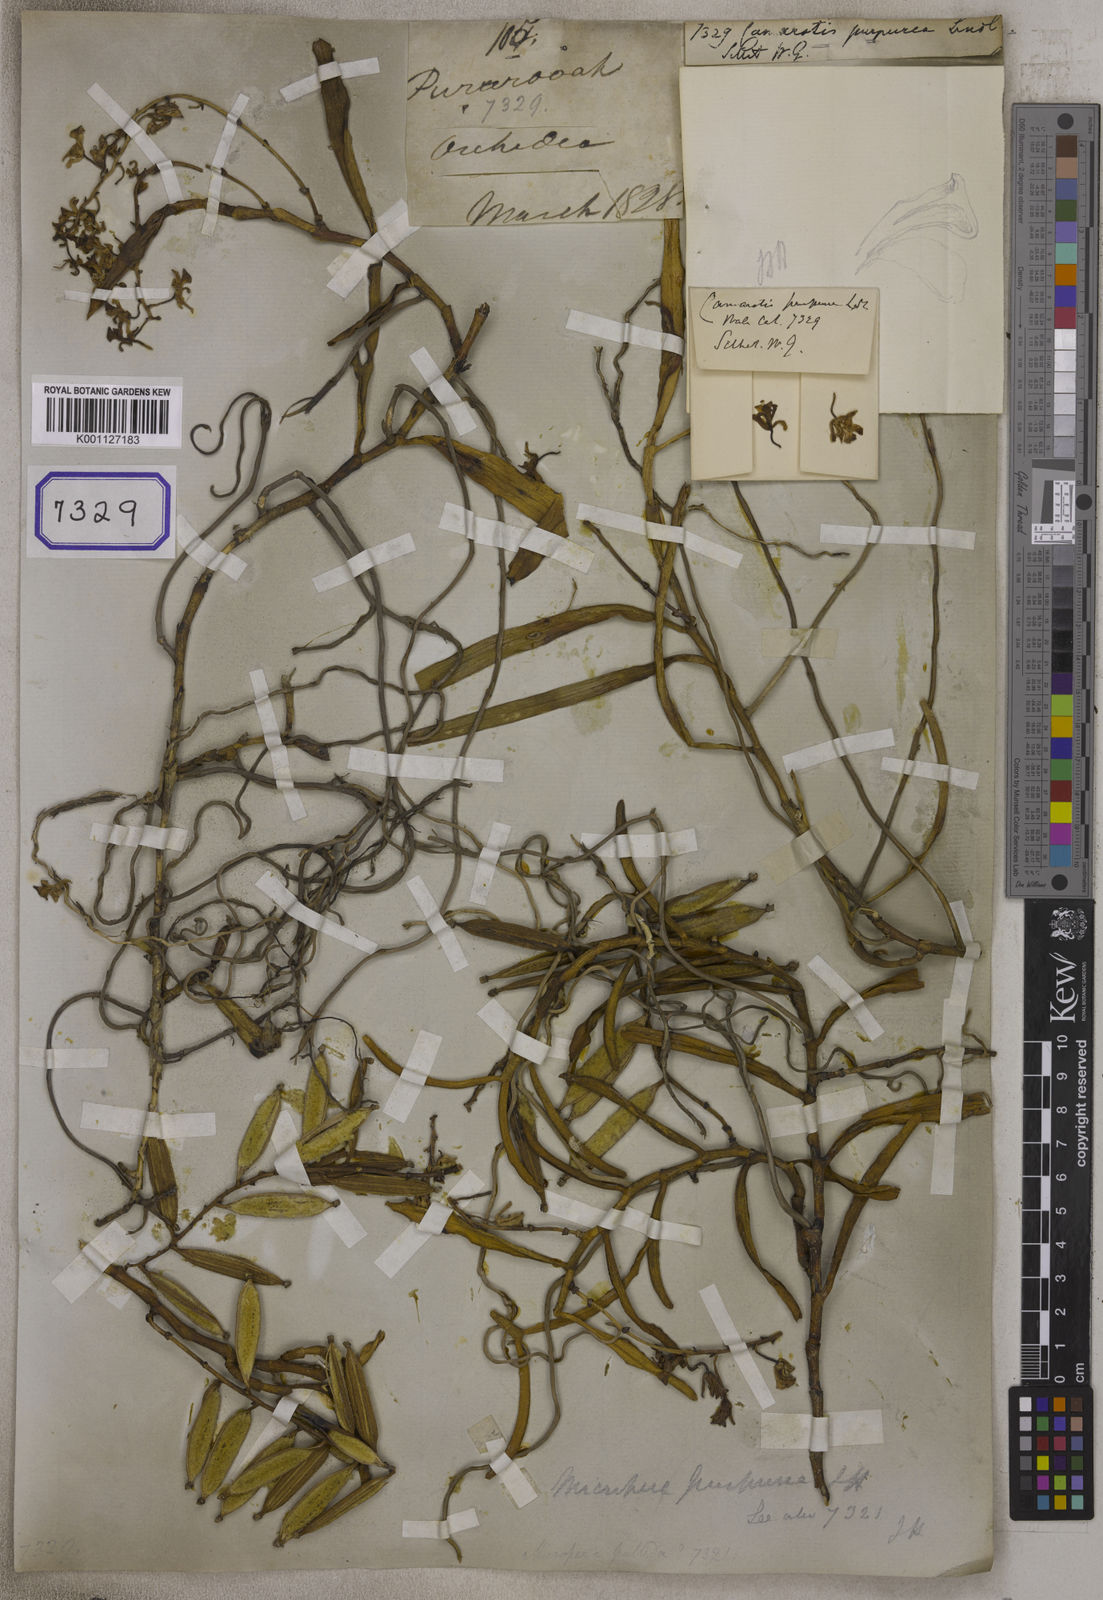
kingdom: Plantae
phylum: Tracheophyta
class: Liliopsida
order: Asparagales
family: Orchidaceae
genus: Micropera
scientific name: Micropera rostrata
